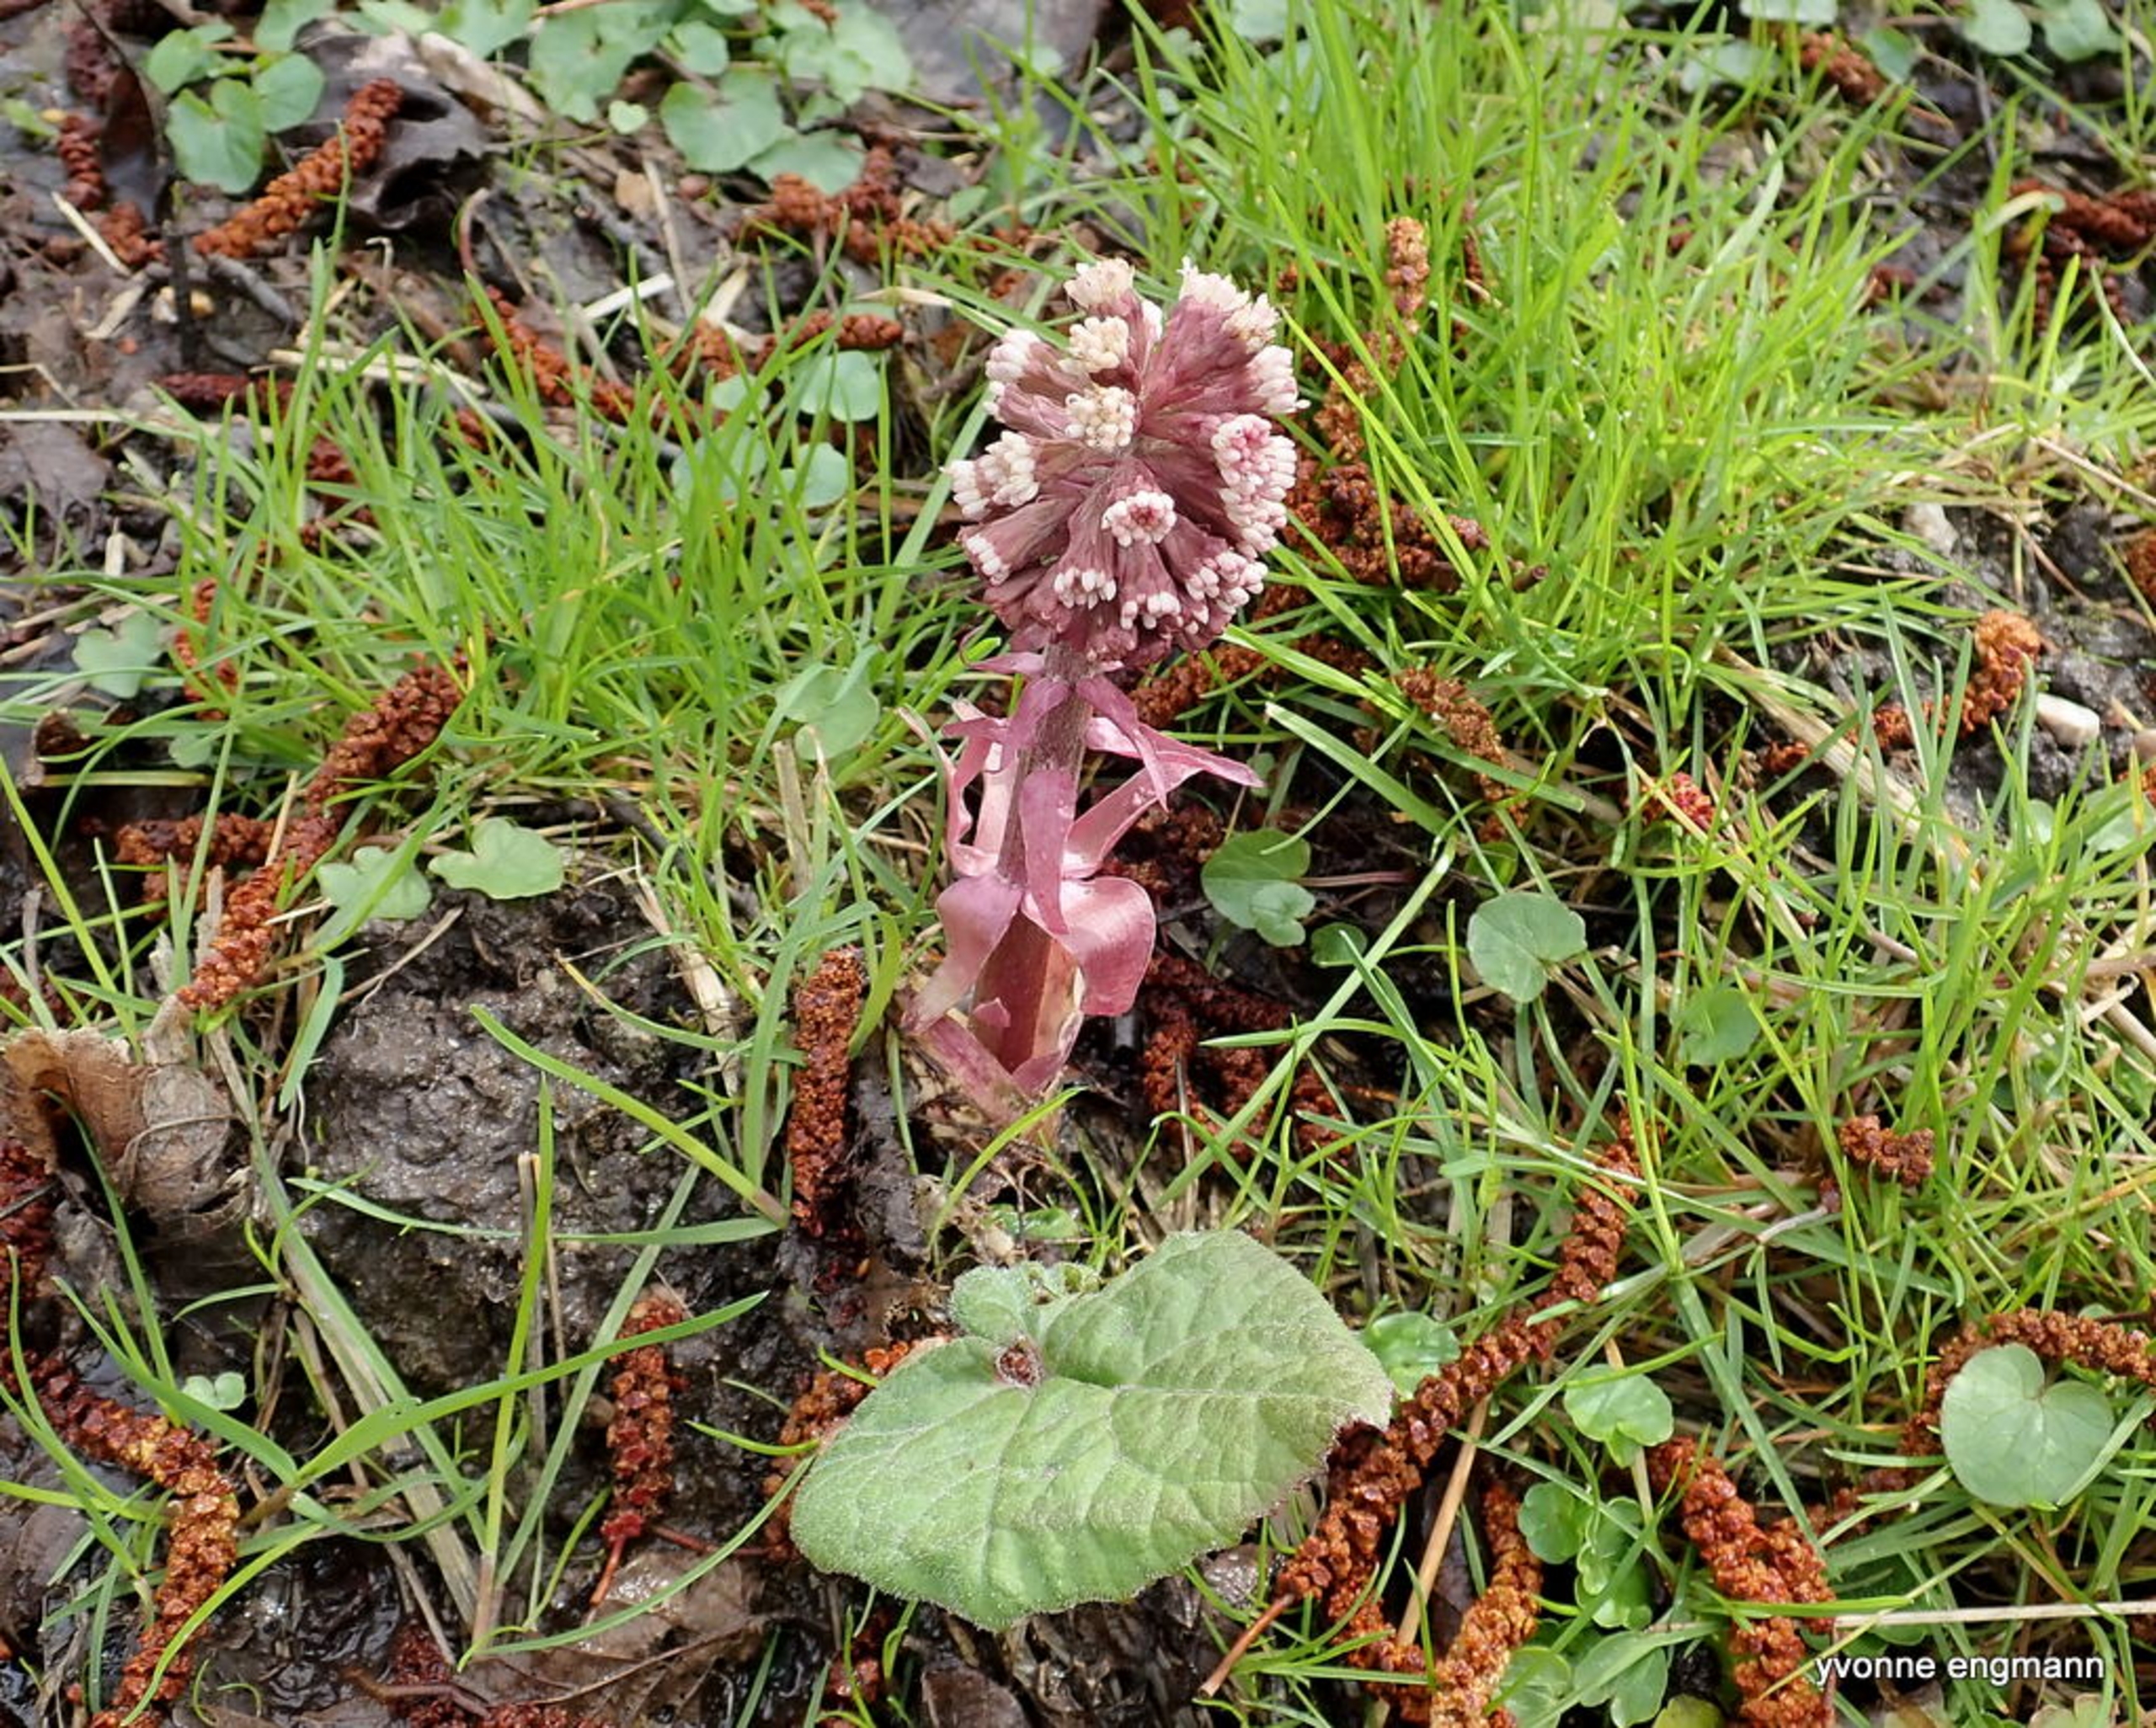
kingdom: Plantae
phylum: Tracheophyta
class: Magnoliopsida
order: Asterales
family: Asteraceae
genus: Petasites
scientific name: Petasites hybridus
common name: Rød hestehov
